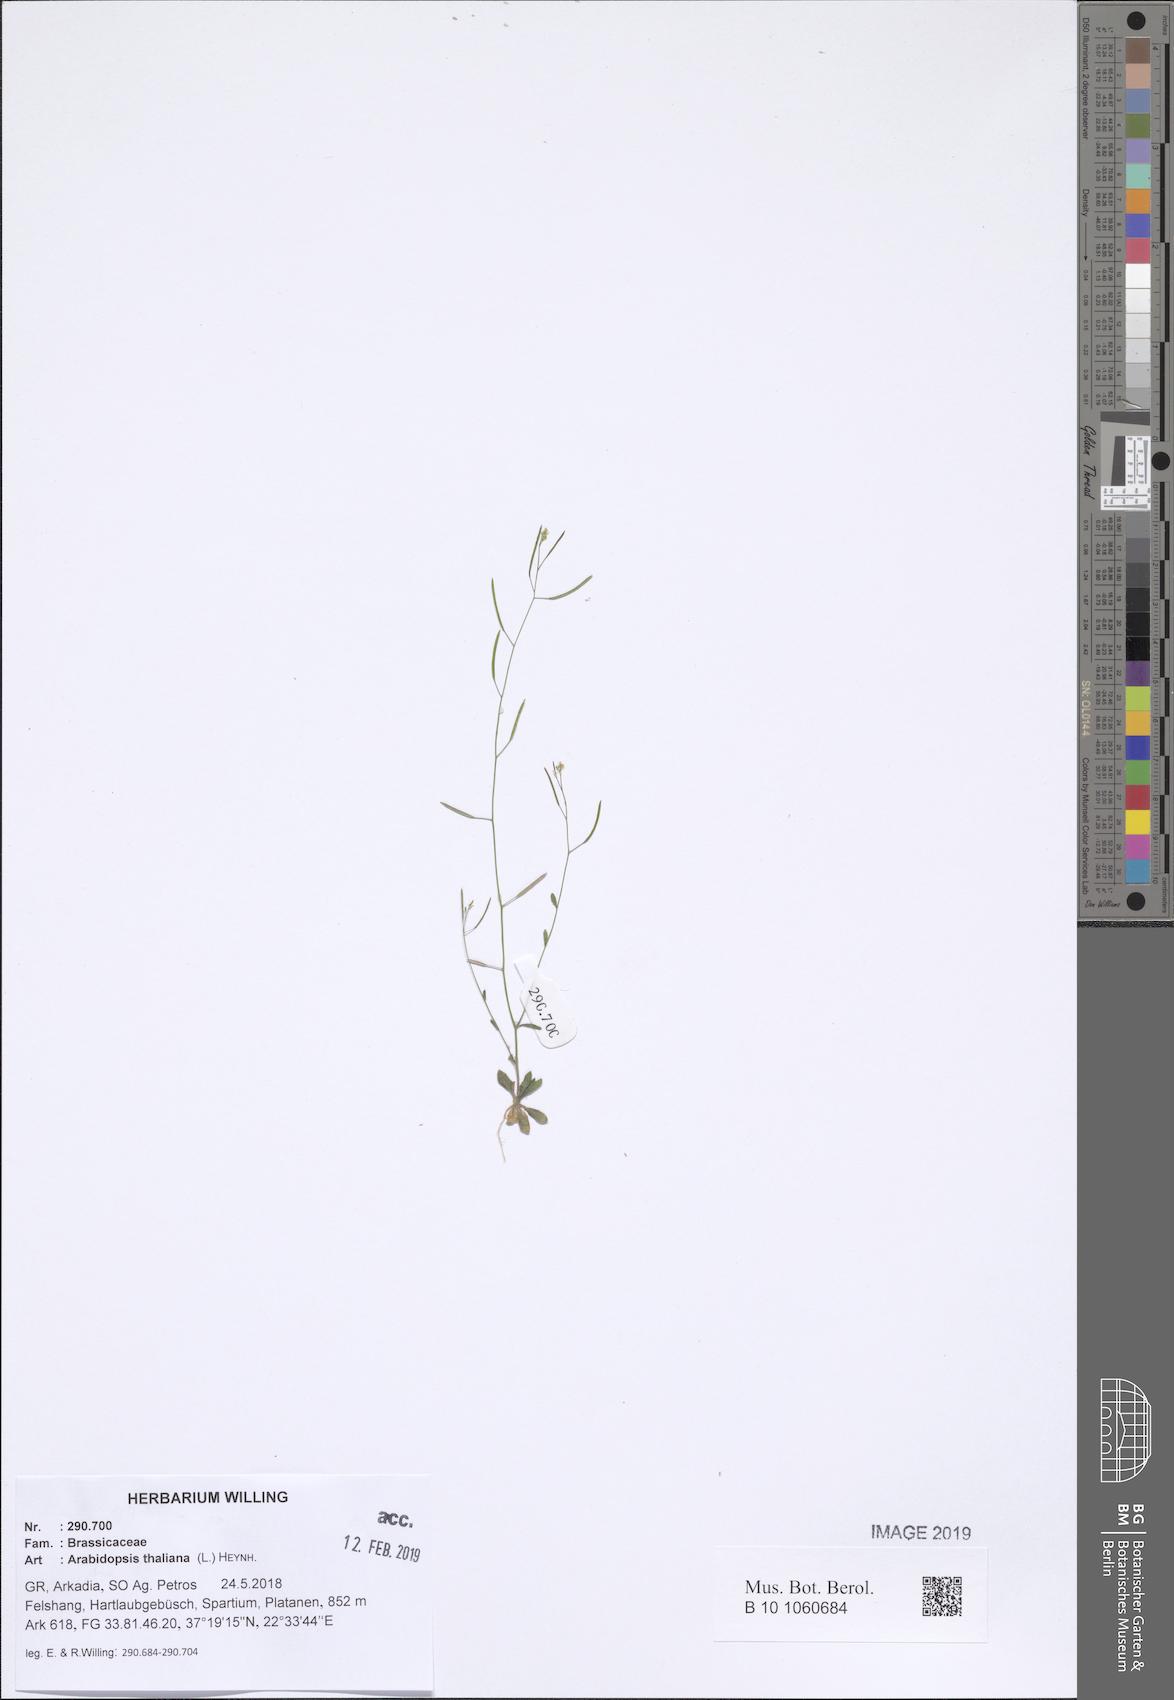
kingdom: Plantae
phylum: Tracheophyta
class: Magnoliopsida
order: Brassicales
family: Brassicaceae
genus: Arabidopsis
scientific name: Arabidopsis thaliana
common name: Thale cress
